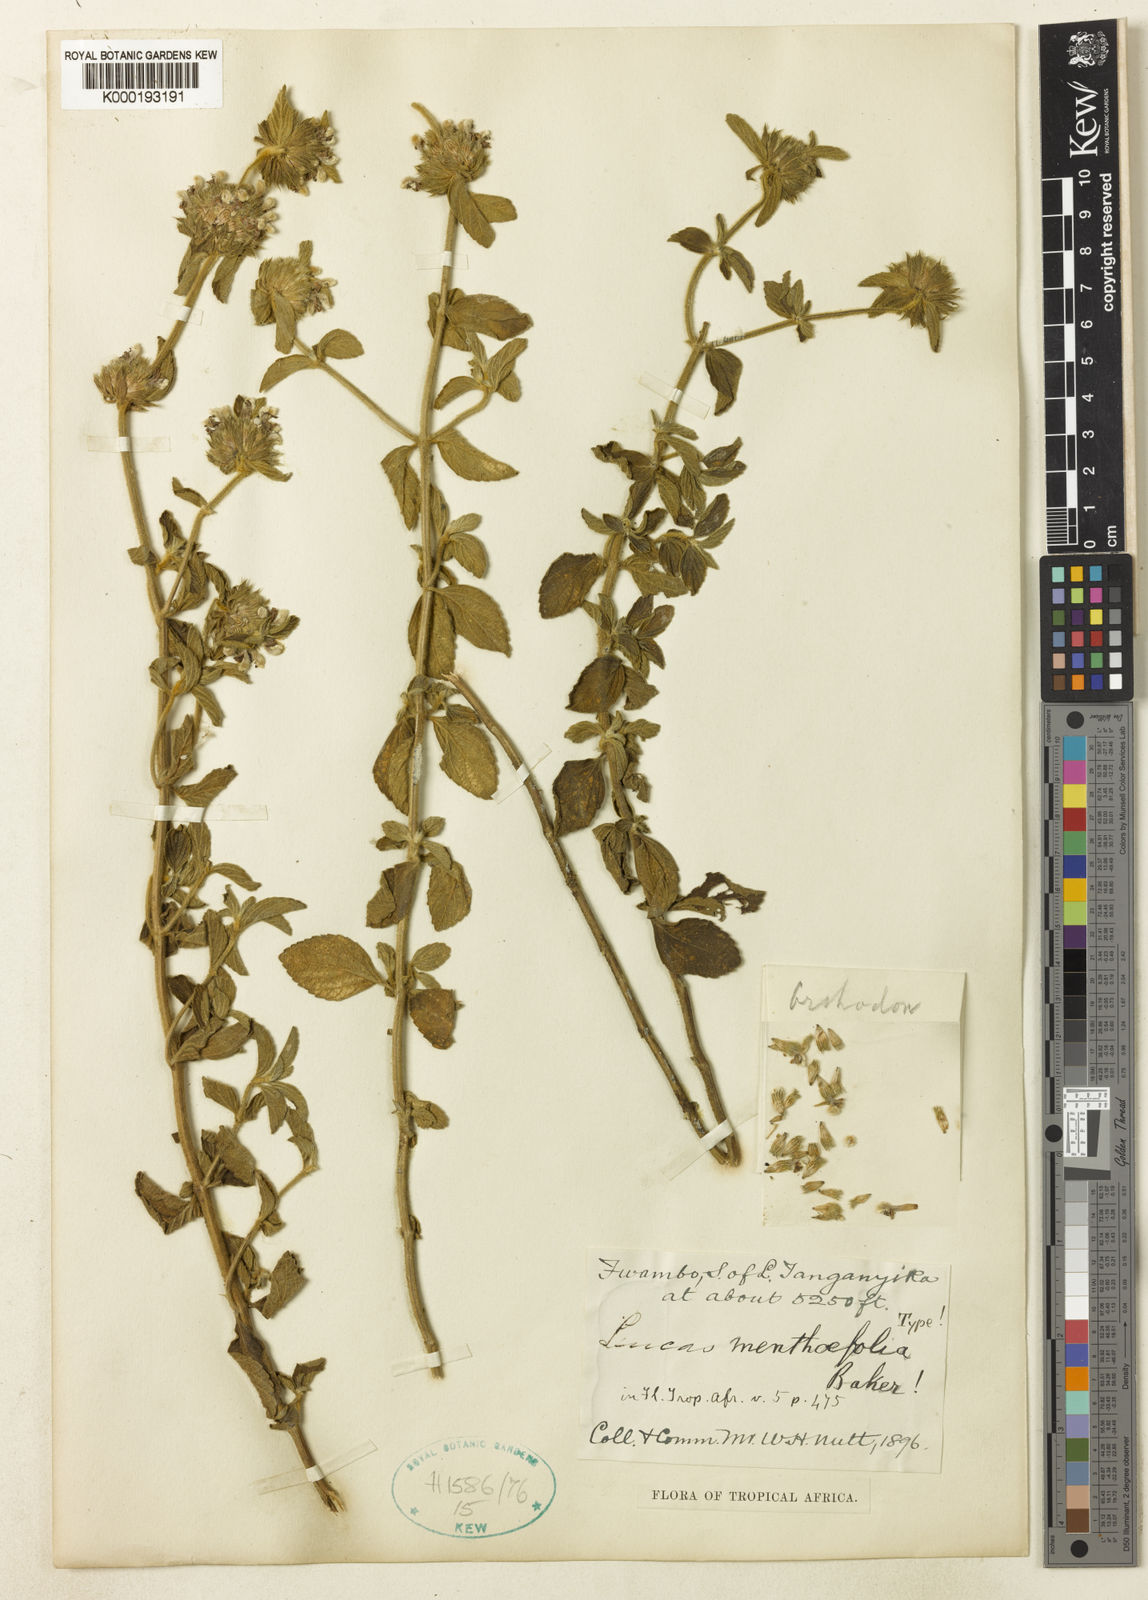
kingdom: Plantae
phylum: Tracheophyta
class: Magnoliopsida
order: Lamiales
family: Lamiaceae
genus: Leucas
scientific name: Leucas menthifolia
